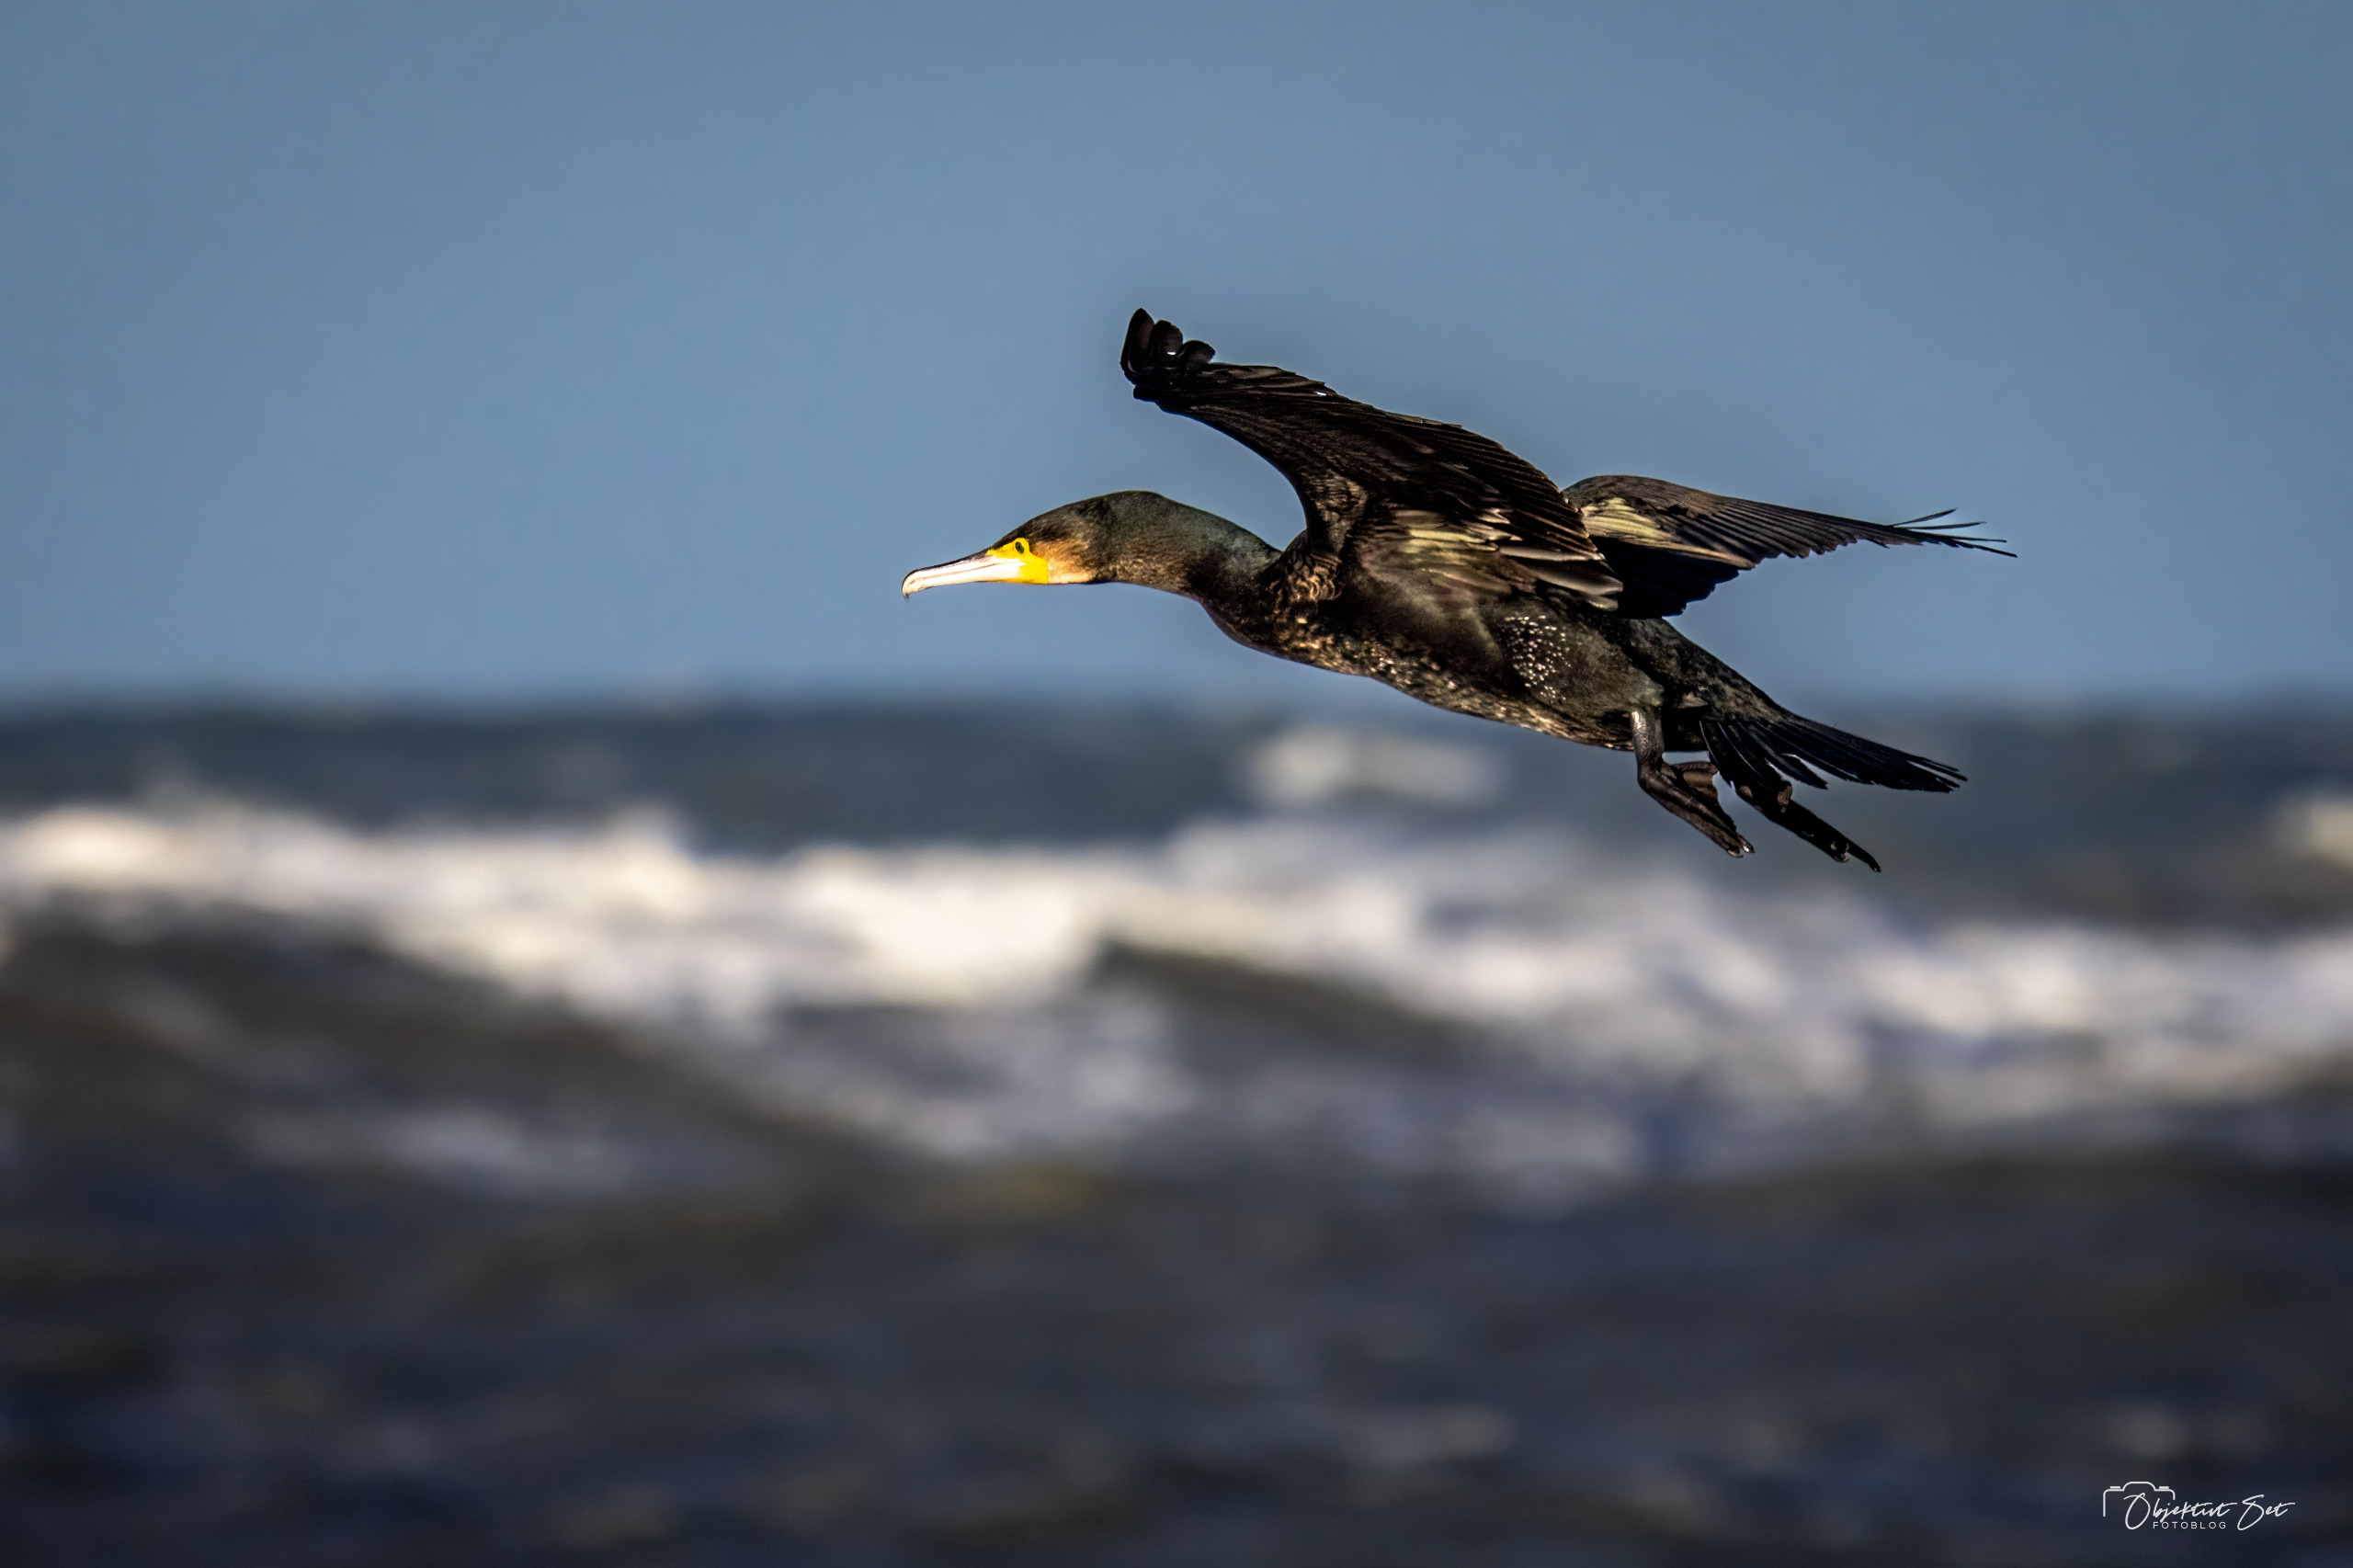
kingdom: Animalia
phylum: Chordata
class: Aves
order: Suliformes
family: Phalacrocoracidae
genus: Phalacrocorax
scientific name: Phalacrocorax carbo
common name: Skarv
